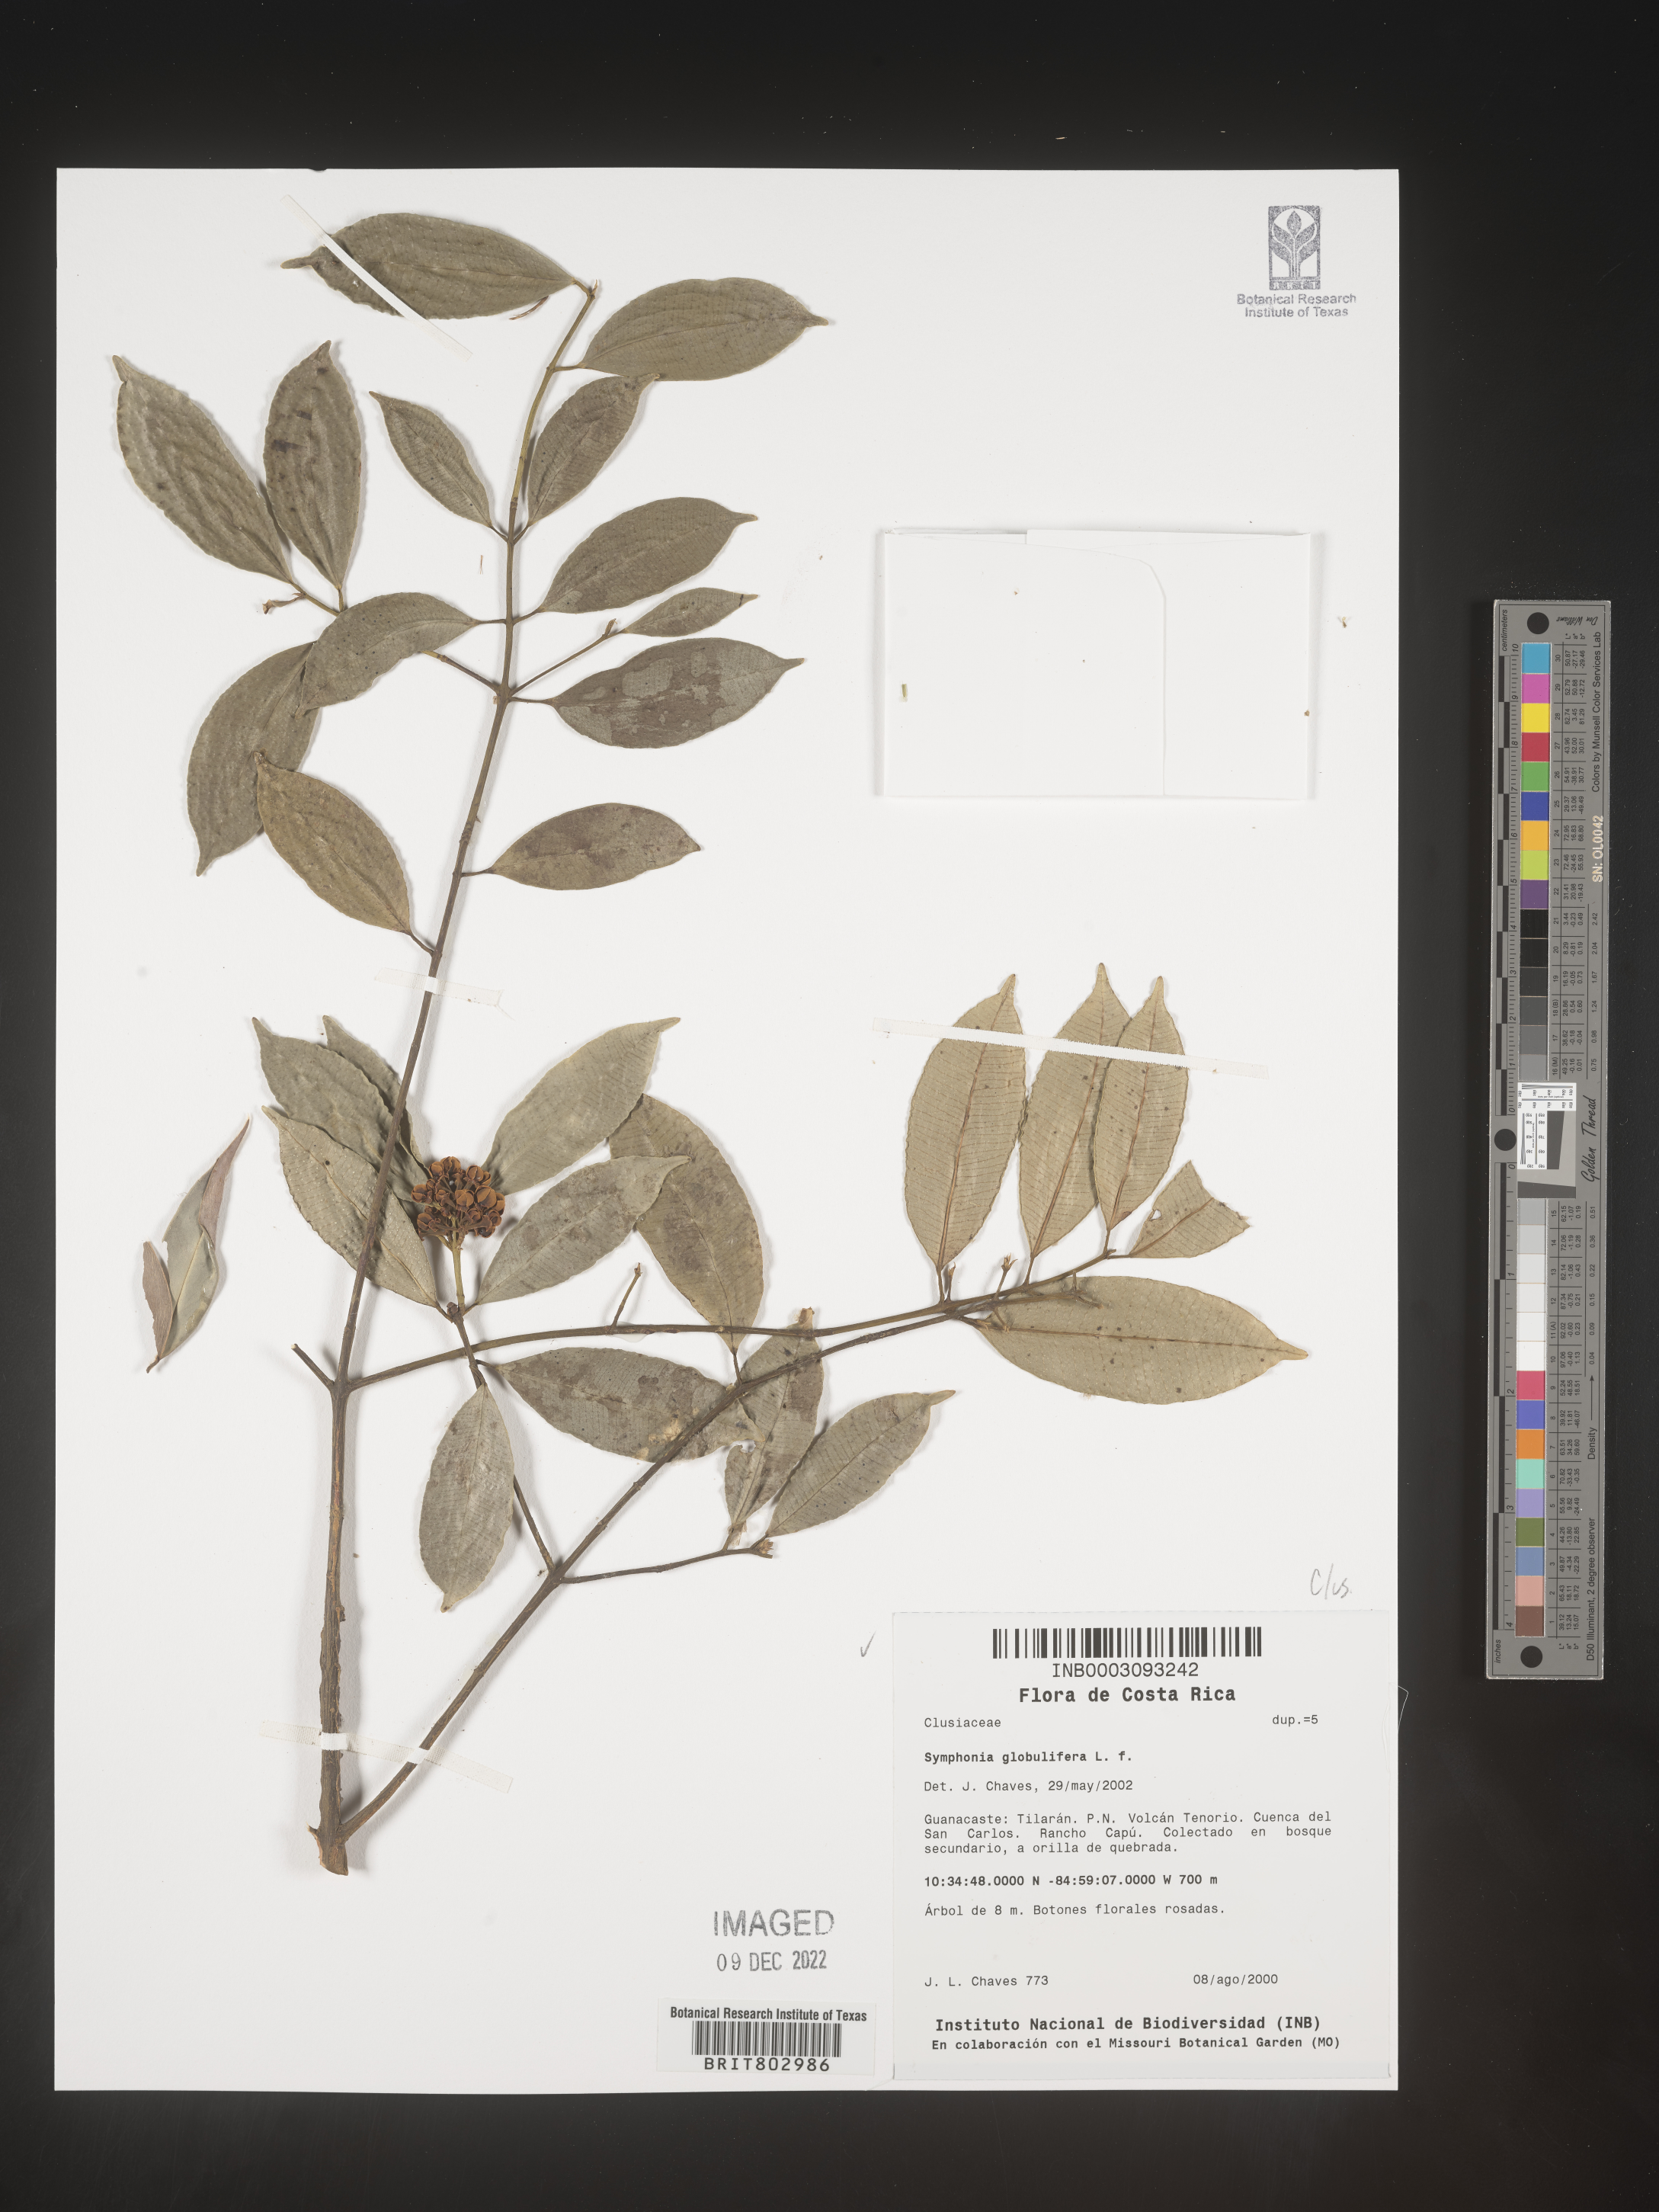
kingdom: Plantae
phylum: Tracheophyta
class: Magnoliopsida
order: Malpighiales
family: Clusiaceae
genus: Symphonia
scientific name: Symphonia
